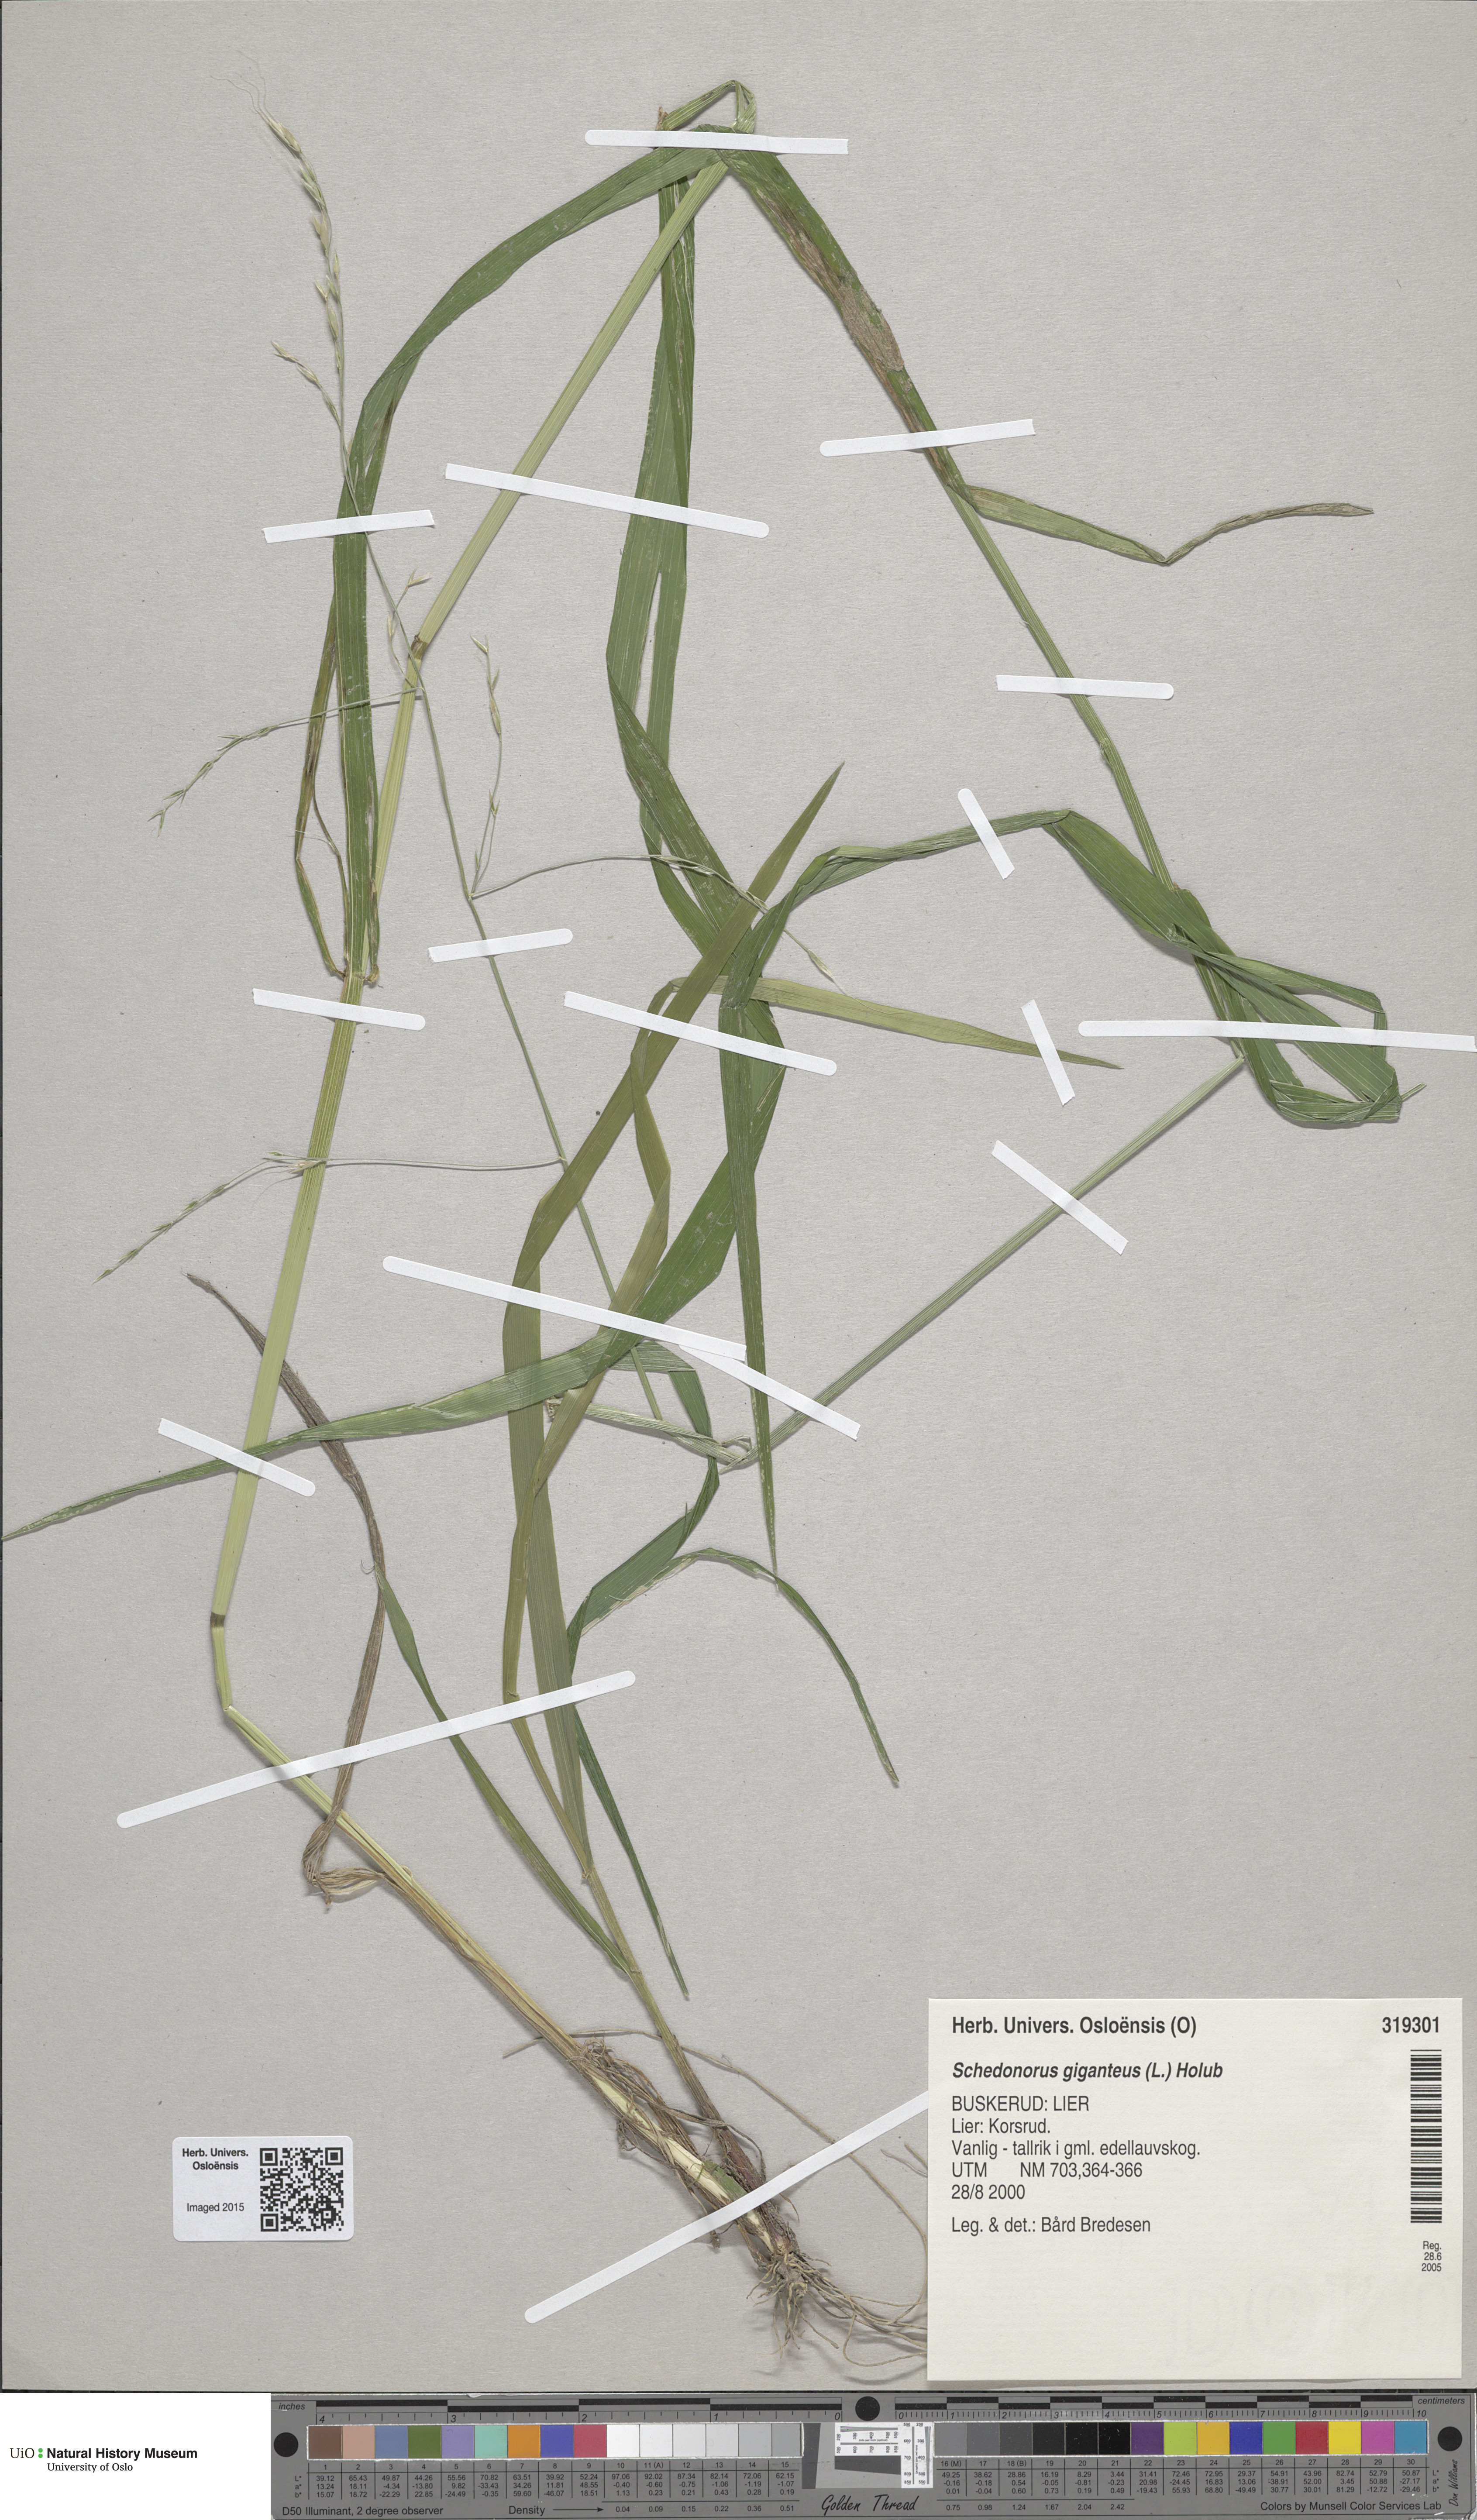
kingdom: Plantae
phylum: Tracheophyta
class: Liliopsida
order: Poales
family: Poaceae
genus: Lolium
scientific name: Lolium giganteum
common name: Giant fescue
